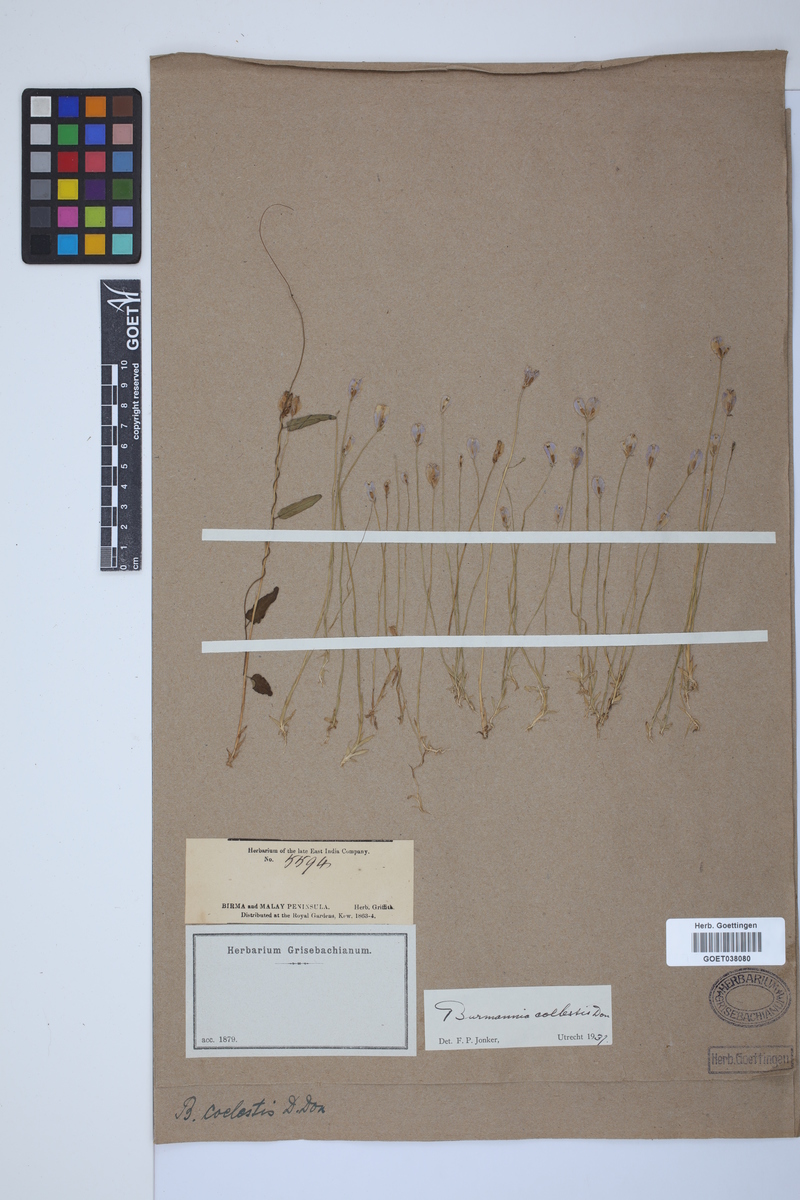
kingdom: Plantae
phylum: Tracheophyta
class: Liliopsida
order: Dioscoreales
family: Burmanniaceae
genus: Burmannia
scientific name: Burmannia coelestis
